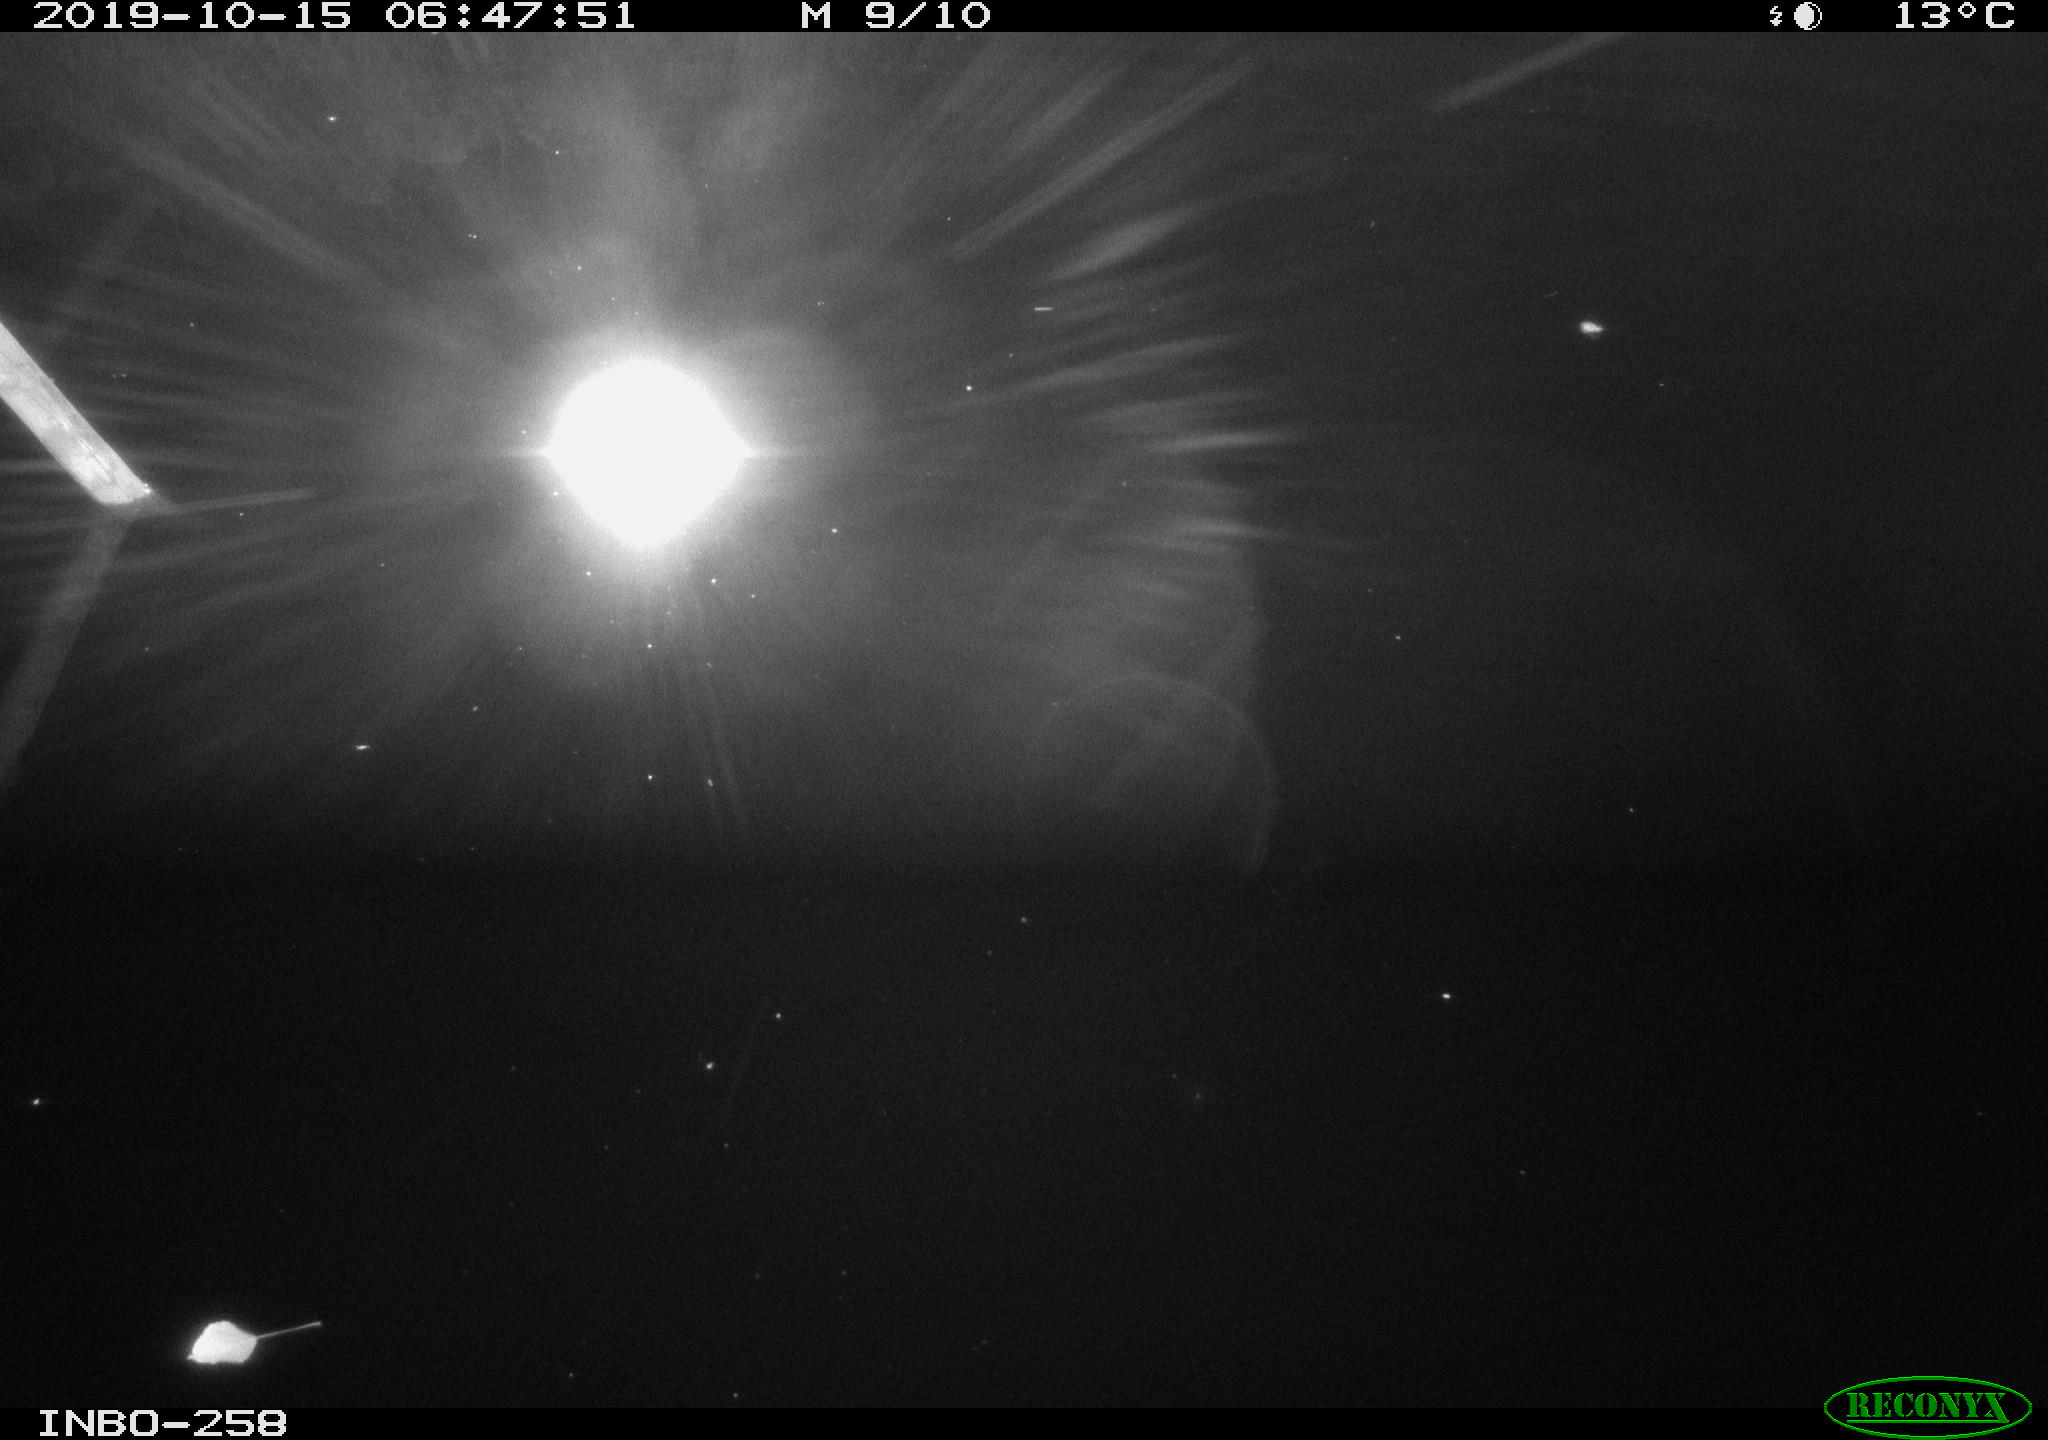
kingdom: Animalia
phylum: Chordata
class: Aves
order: Anseriformes
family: Anatidae
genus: Anas
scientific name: Anas platyrhynchos
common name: Mallard
